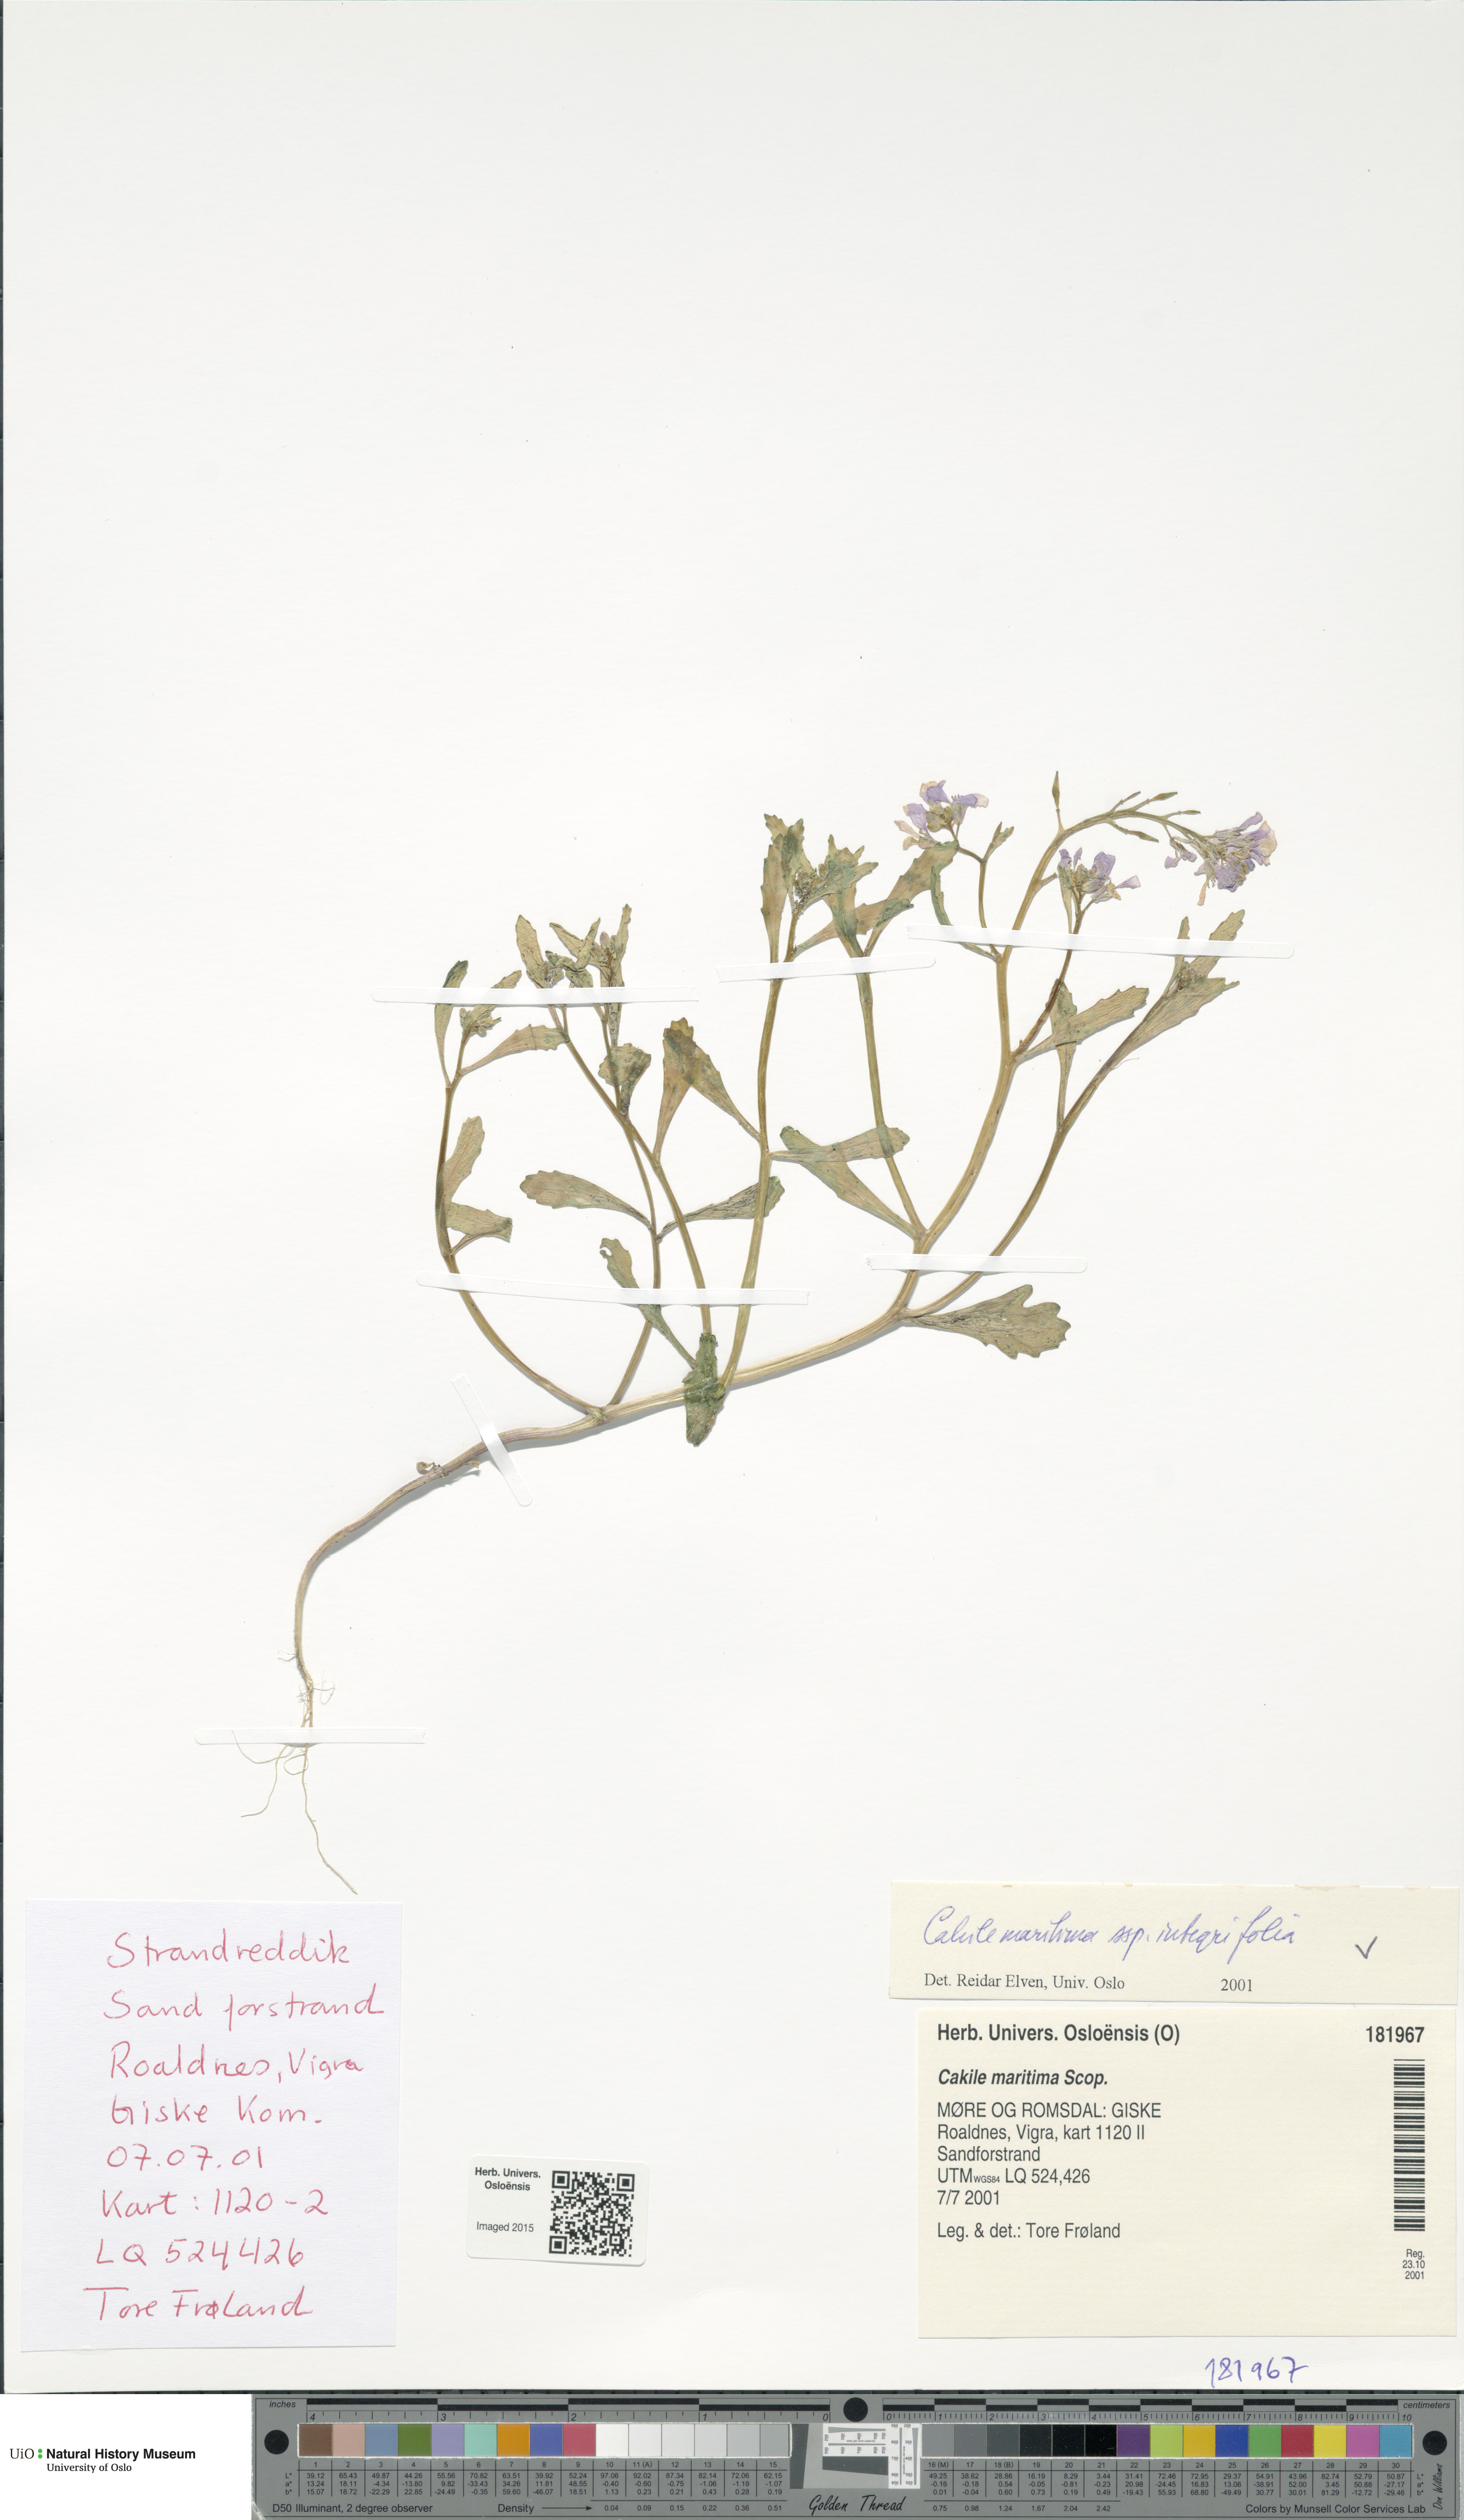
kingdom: Plantae
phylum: Tracheophyta
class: Magnoliopsida
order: Brassicales
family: Brassicaceae
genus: Cakile
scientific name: Cakile maritima
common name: Sea rocket
